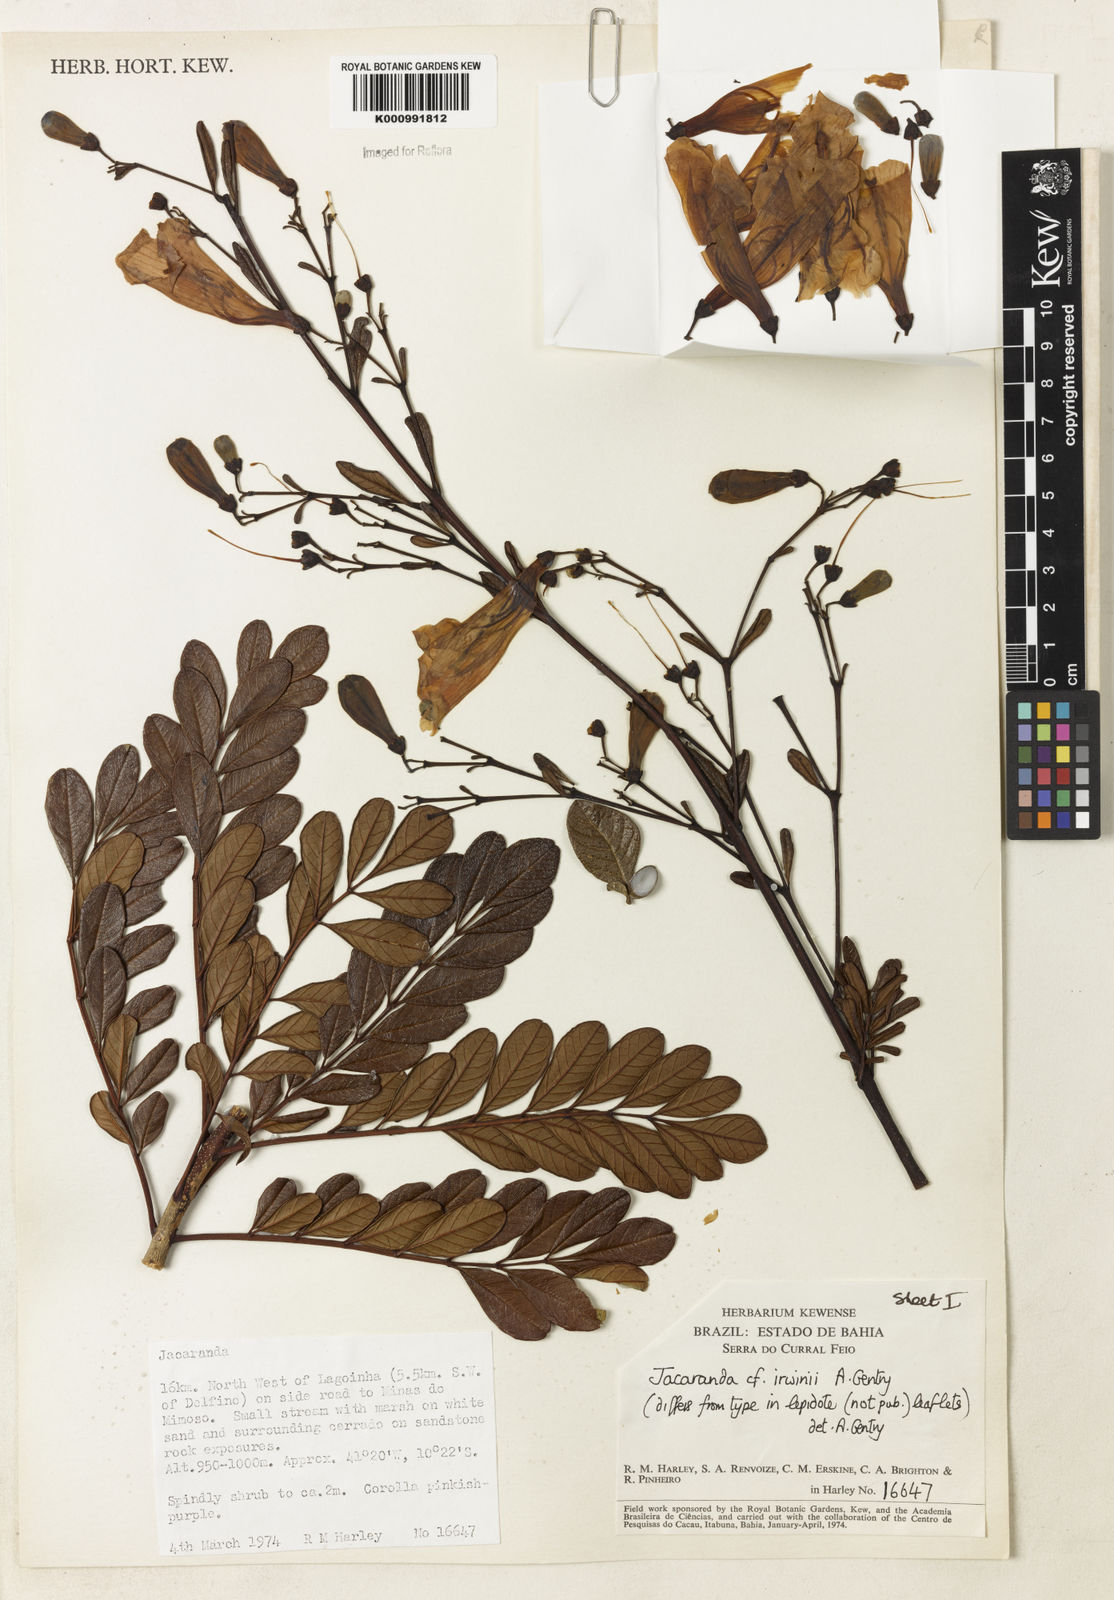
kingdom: Plantae
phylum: Tracheophyta
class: Magnoliopsida
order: Lamiales
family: Bignoniaceae
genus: Jacaranda
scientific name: Jacaranda irwinii
